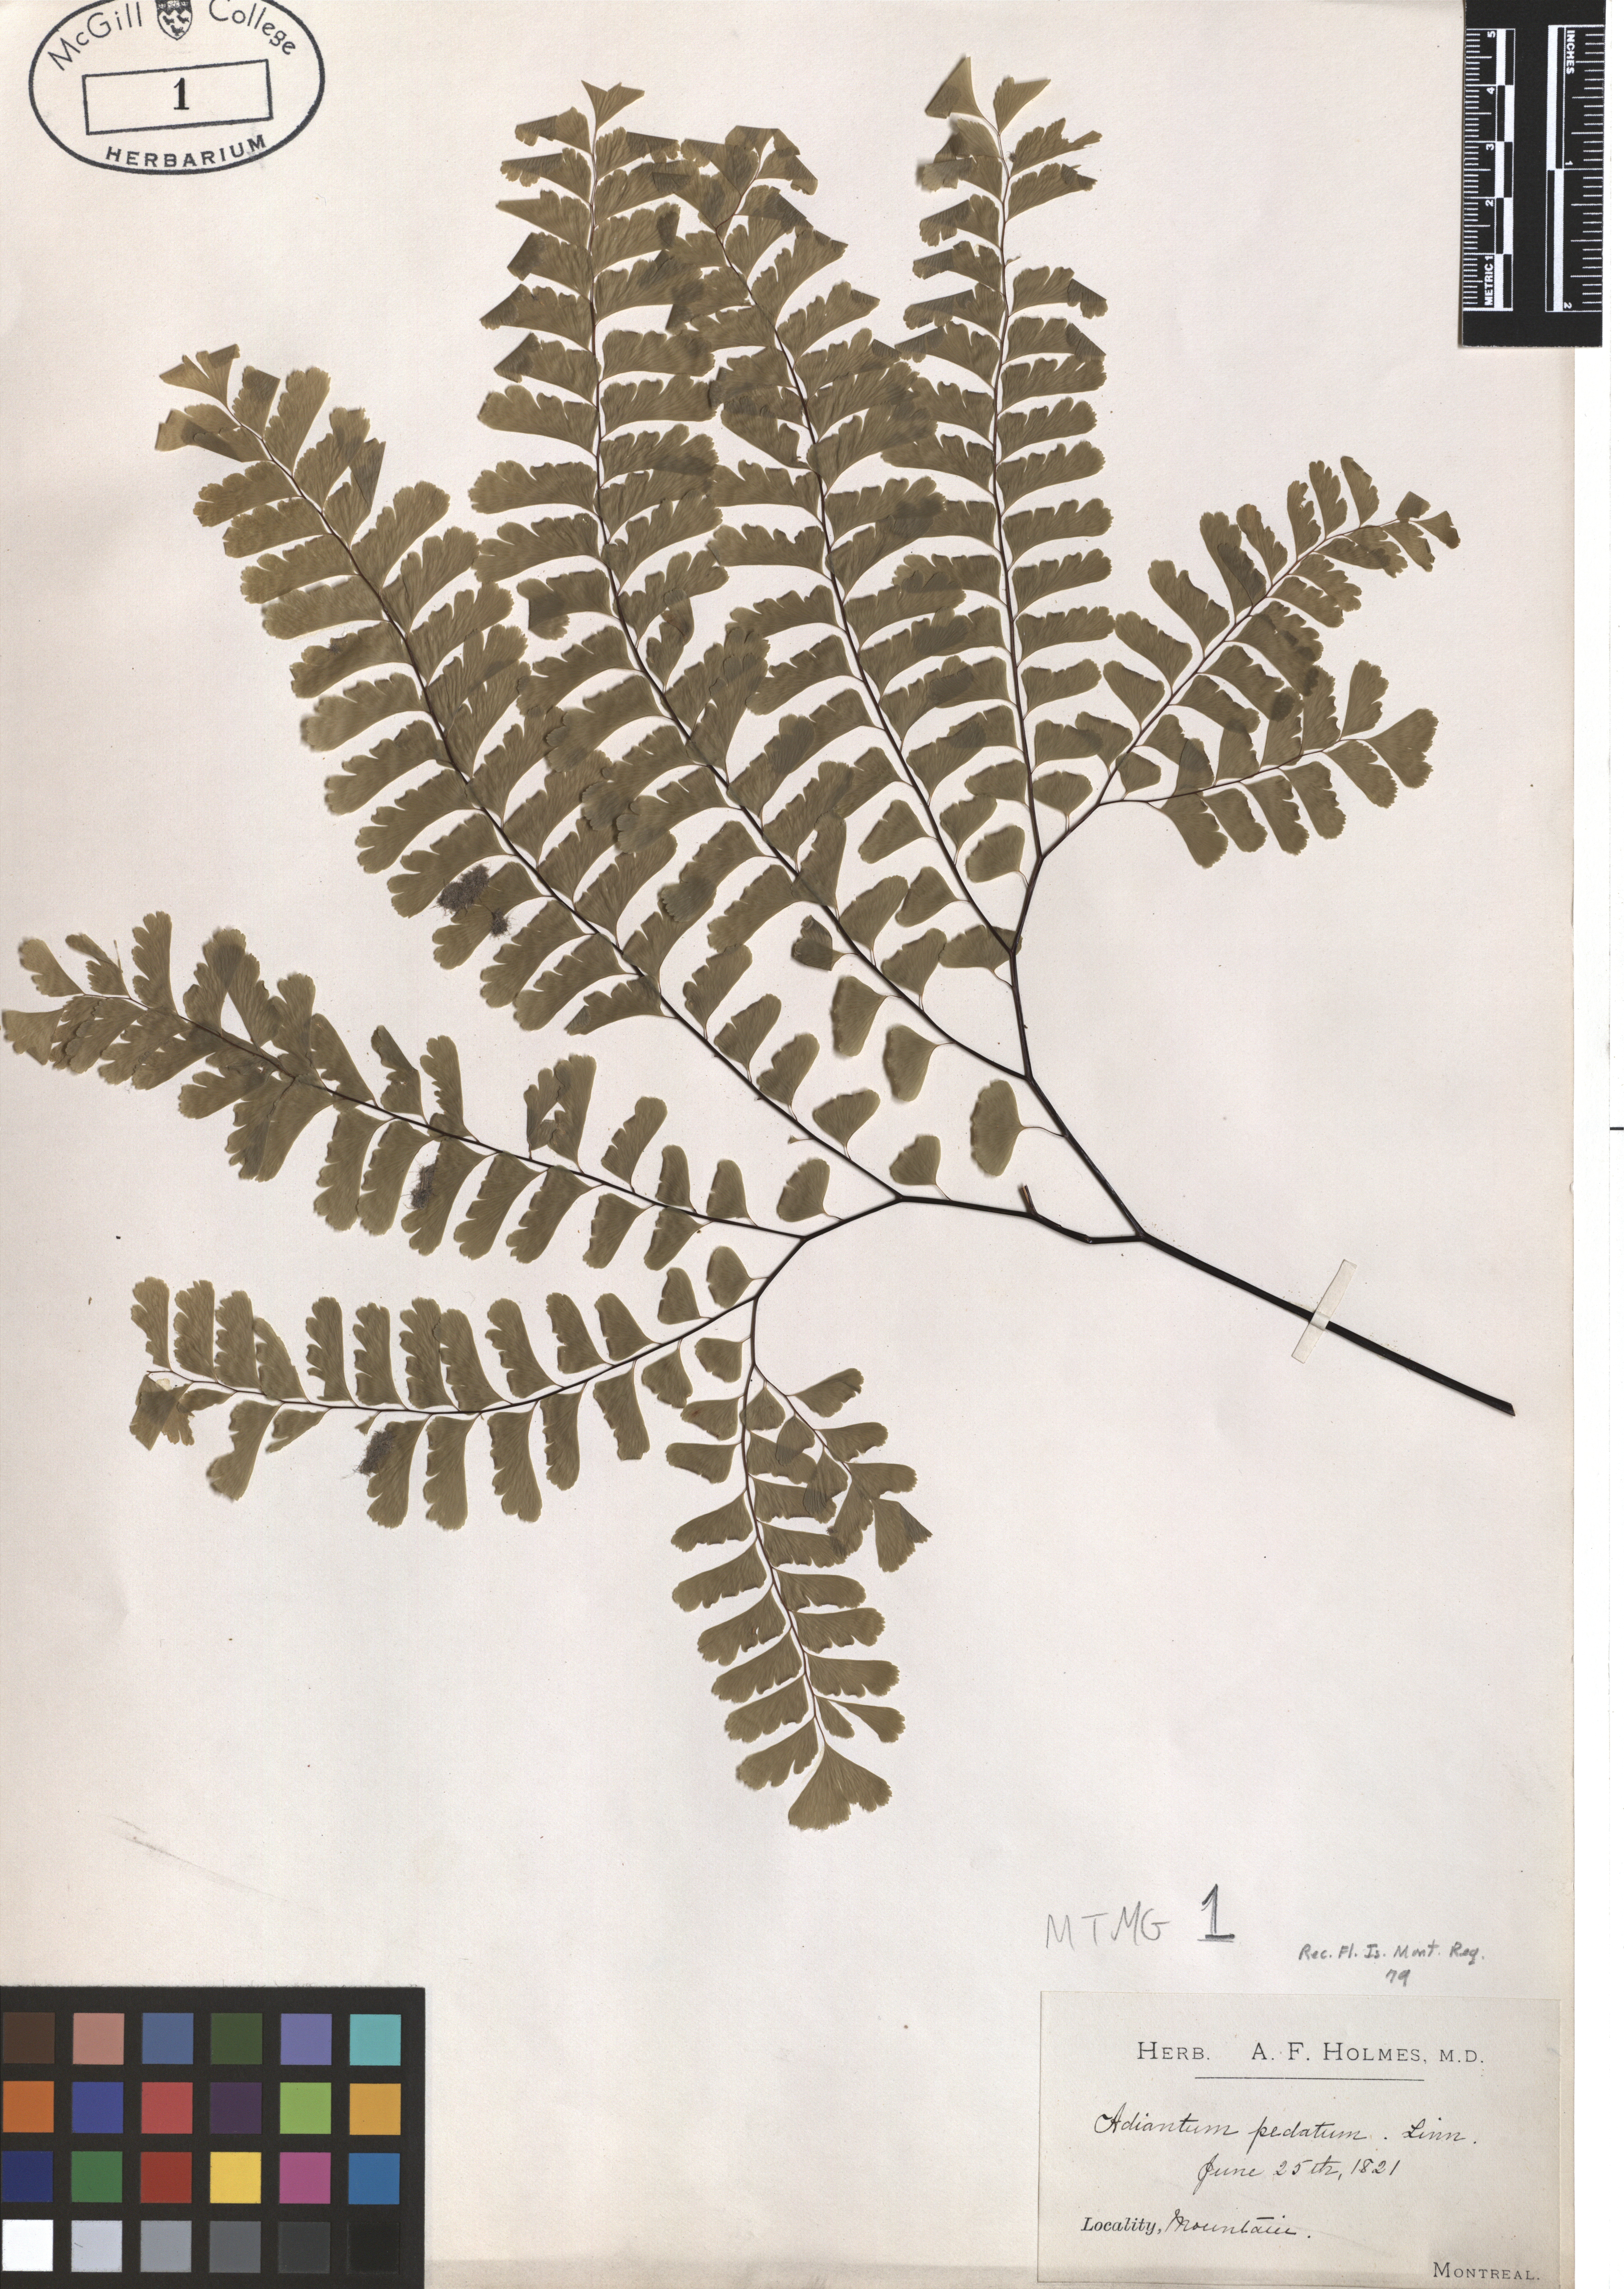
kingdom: Plantae
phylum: Tracheophyta
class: Polypodiopsida
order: Polypodiales
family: Pteridaceae
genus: Adiantum
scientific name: Adiantum pedatum
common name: Five-finger fern
